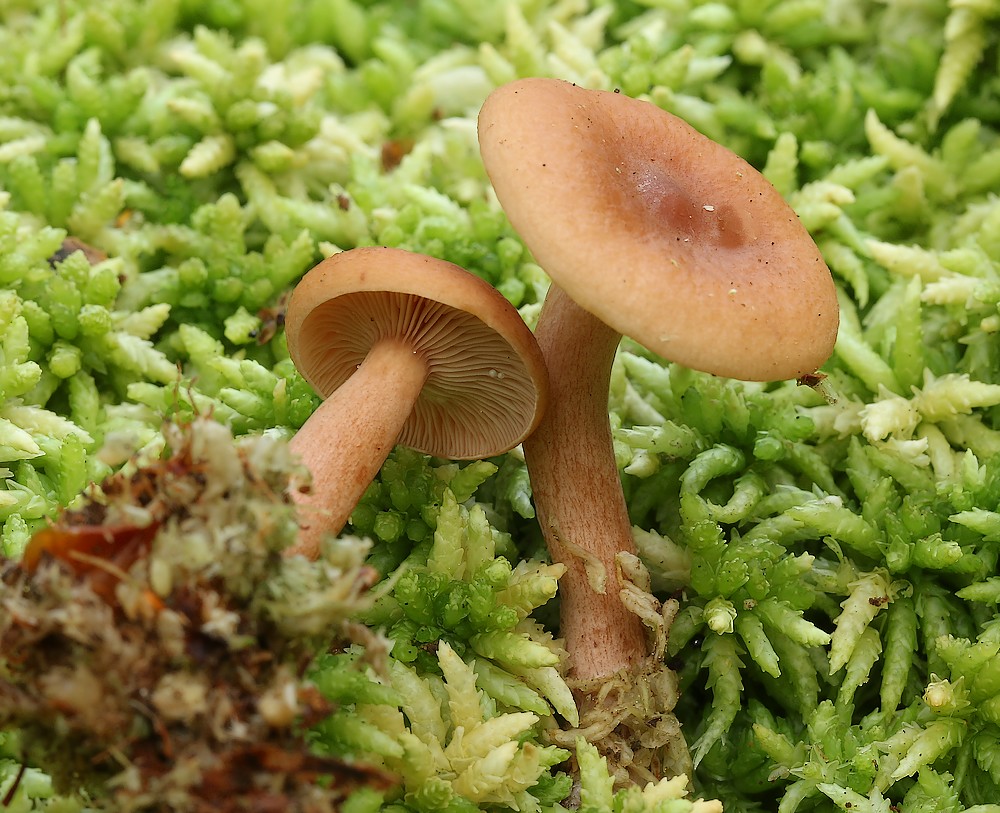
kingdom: Fungi
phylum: Basidiomycota
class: Agaricomycetes
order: Russulales
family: Russulaceae
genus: Lactarius
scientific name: Lactarius tabidus
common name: rynket mælkehat
